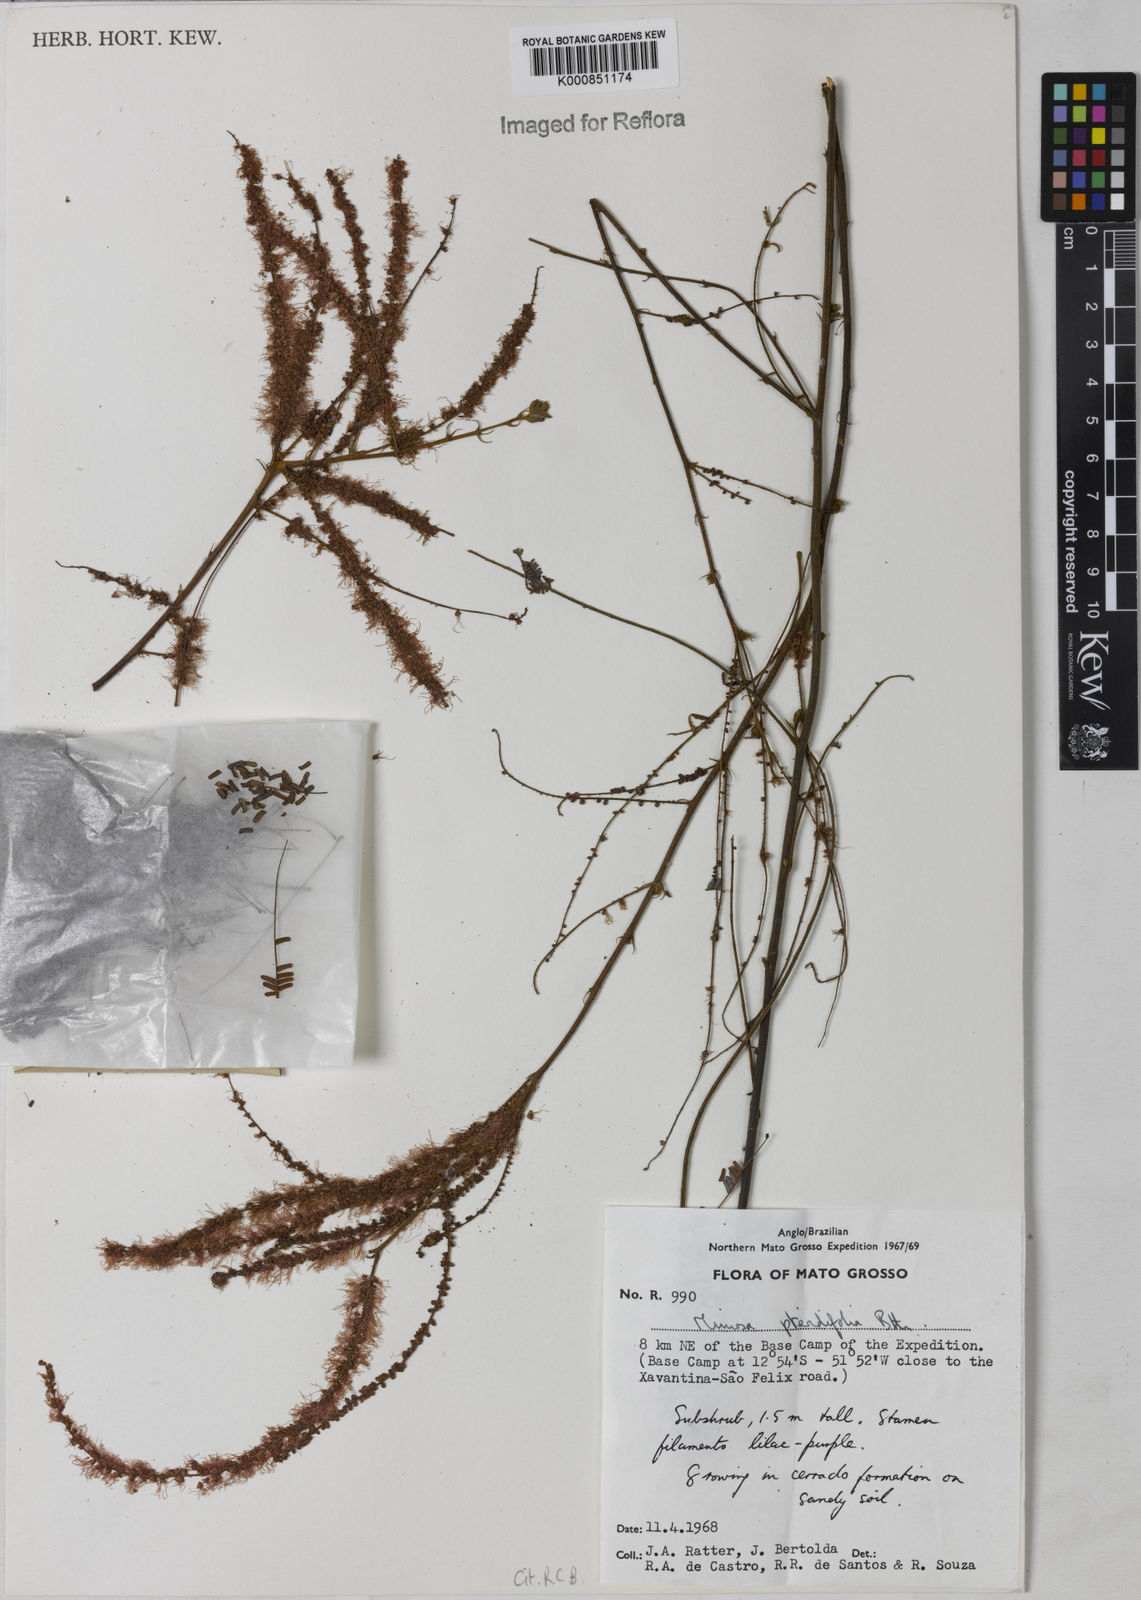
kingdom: Plantae
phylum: Tracheophyta
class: Magnoliopsida
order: Fabales
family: Fabaceae
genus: Mimosa
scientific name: Mimosa pteridifolia
